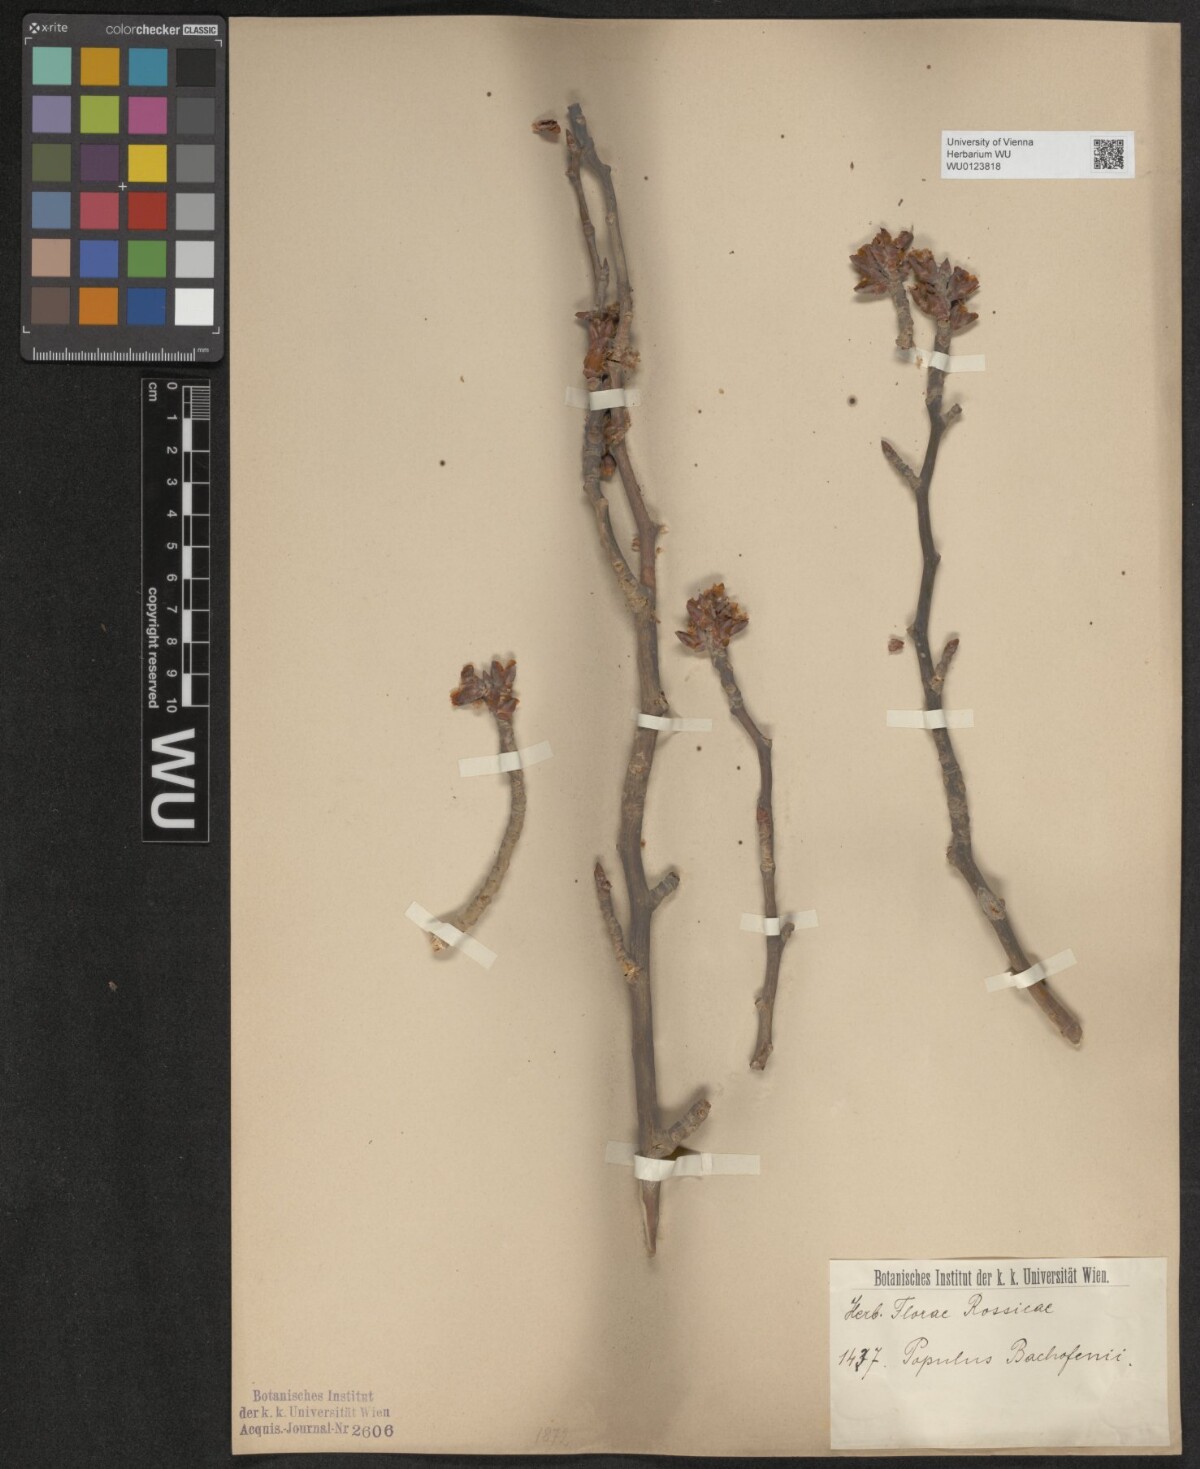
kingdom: Plantae
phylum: Tracheophyta
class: Magnoliopsida
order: Malpighiales
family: Salicaceae
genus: Populus
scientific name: Populus alba
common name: White poplar
